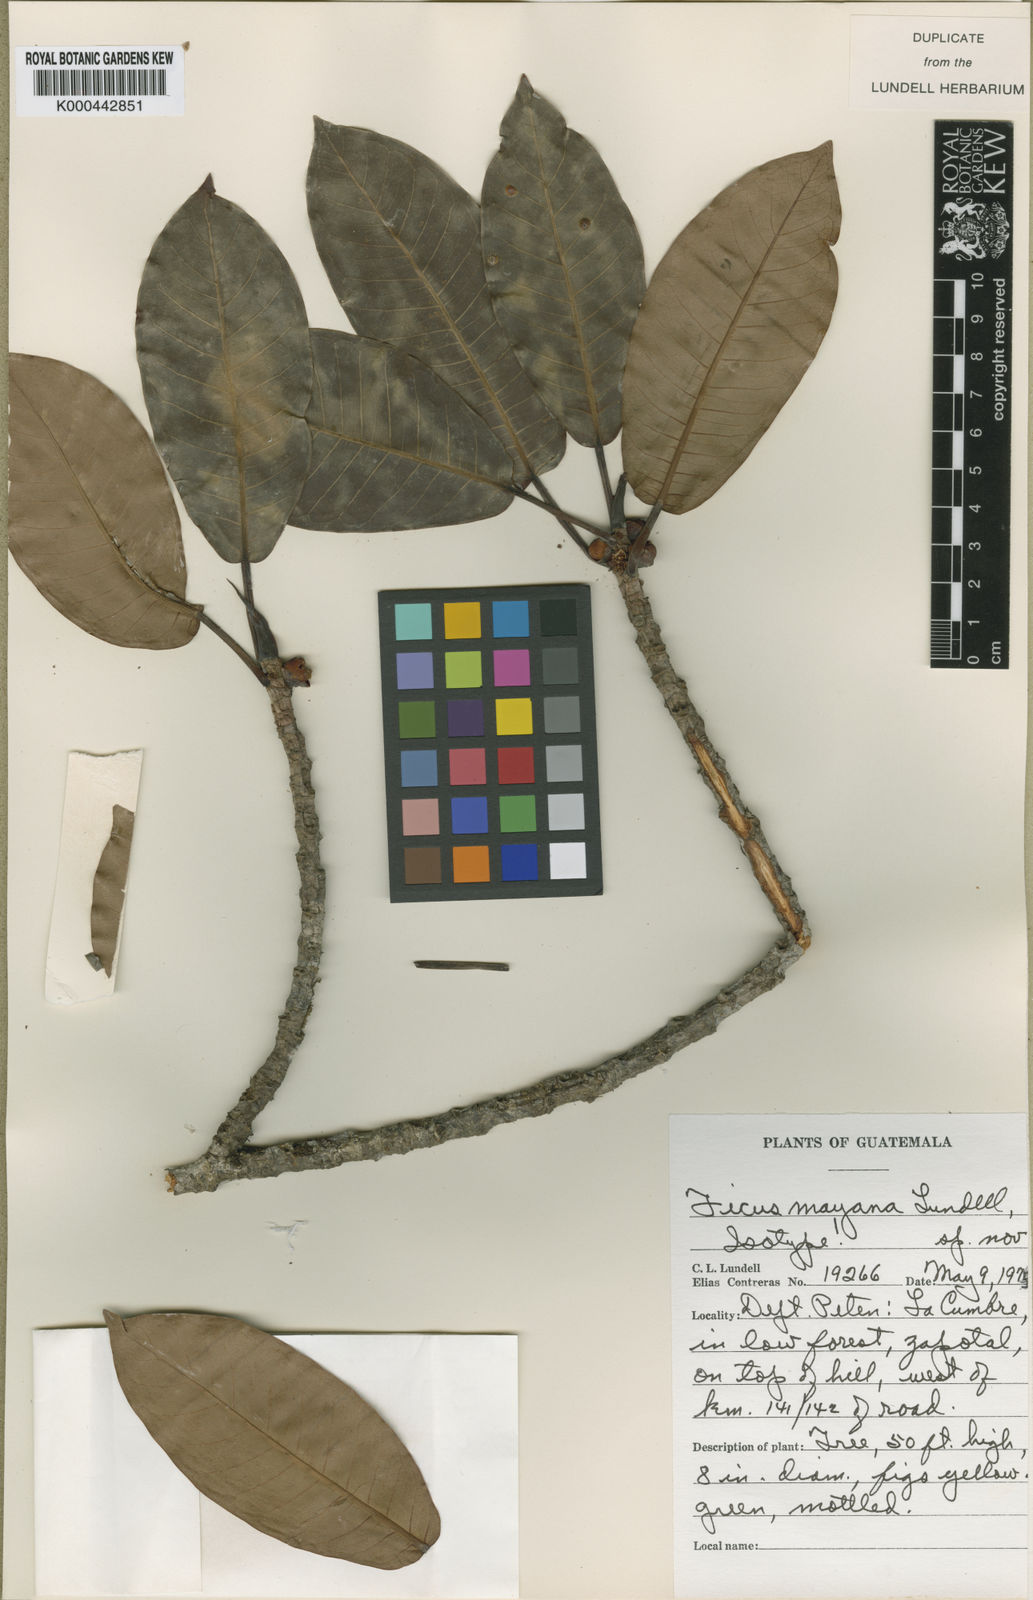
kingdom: Plantae
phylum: Tracheophyta
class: Magnoliopsida
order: Rosales
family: Moraceae
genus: Ficus
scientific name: Ficus aurea
